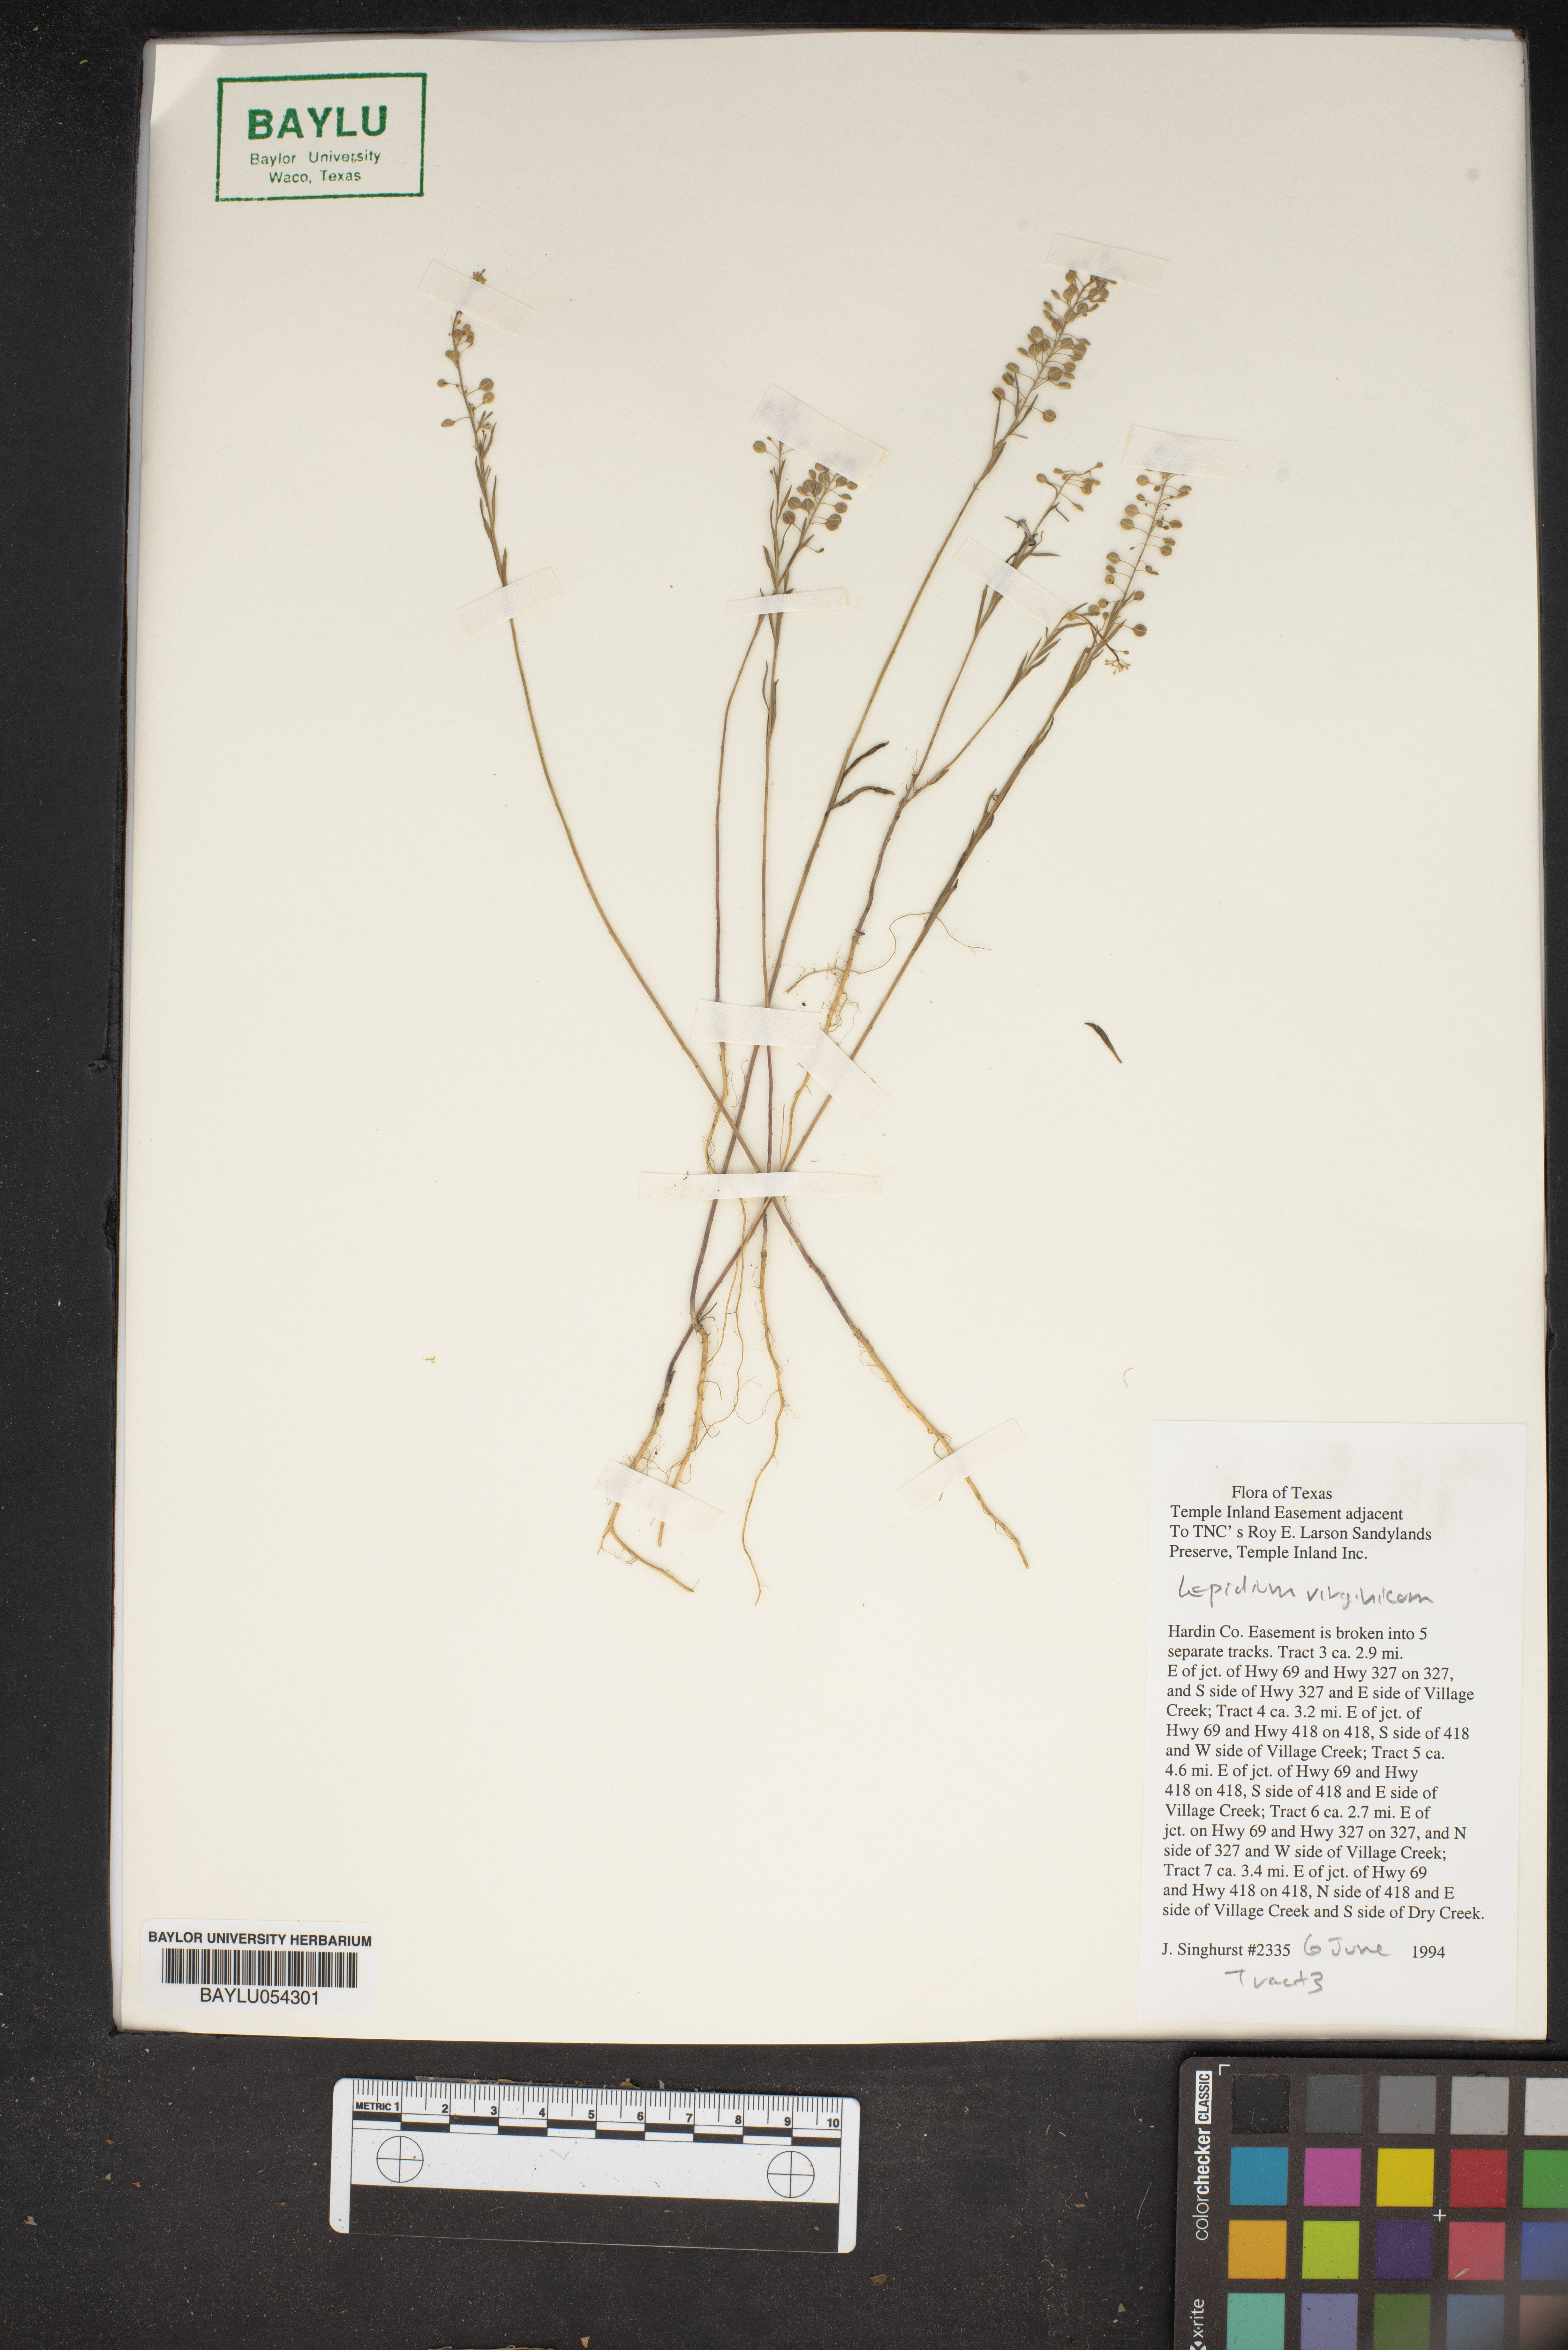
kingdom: Plantae
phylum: Tracheophyta
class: Magnoliopsida
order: Brassicales
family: Brassicaceae
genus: Lepidium
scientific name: Lepidium virginicum
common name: Least pepperwort
